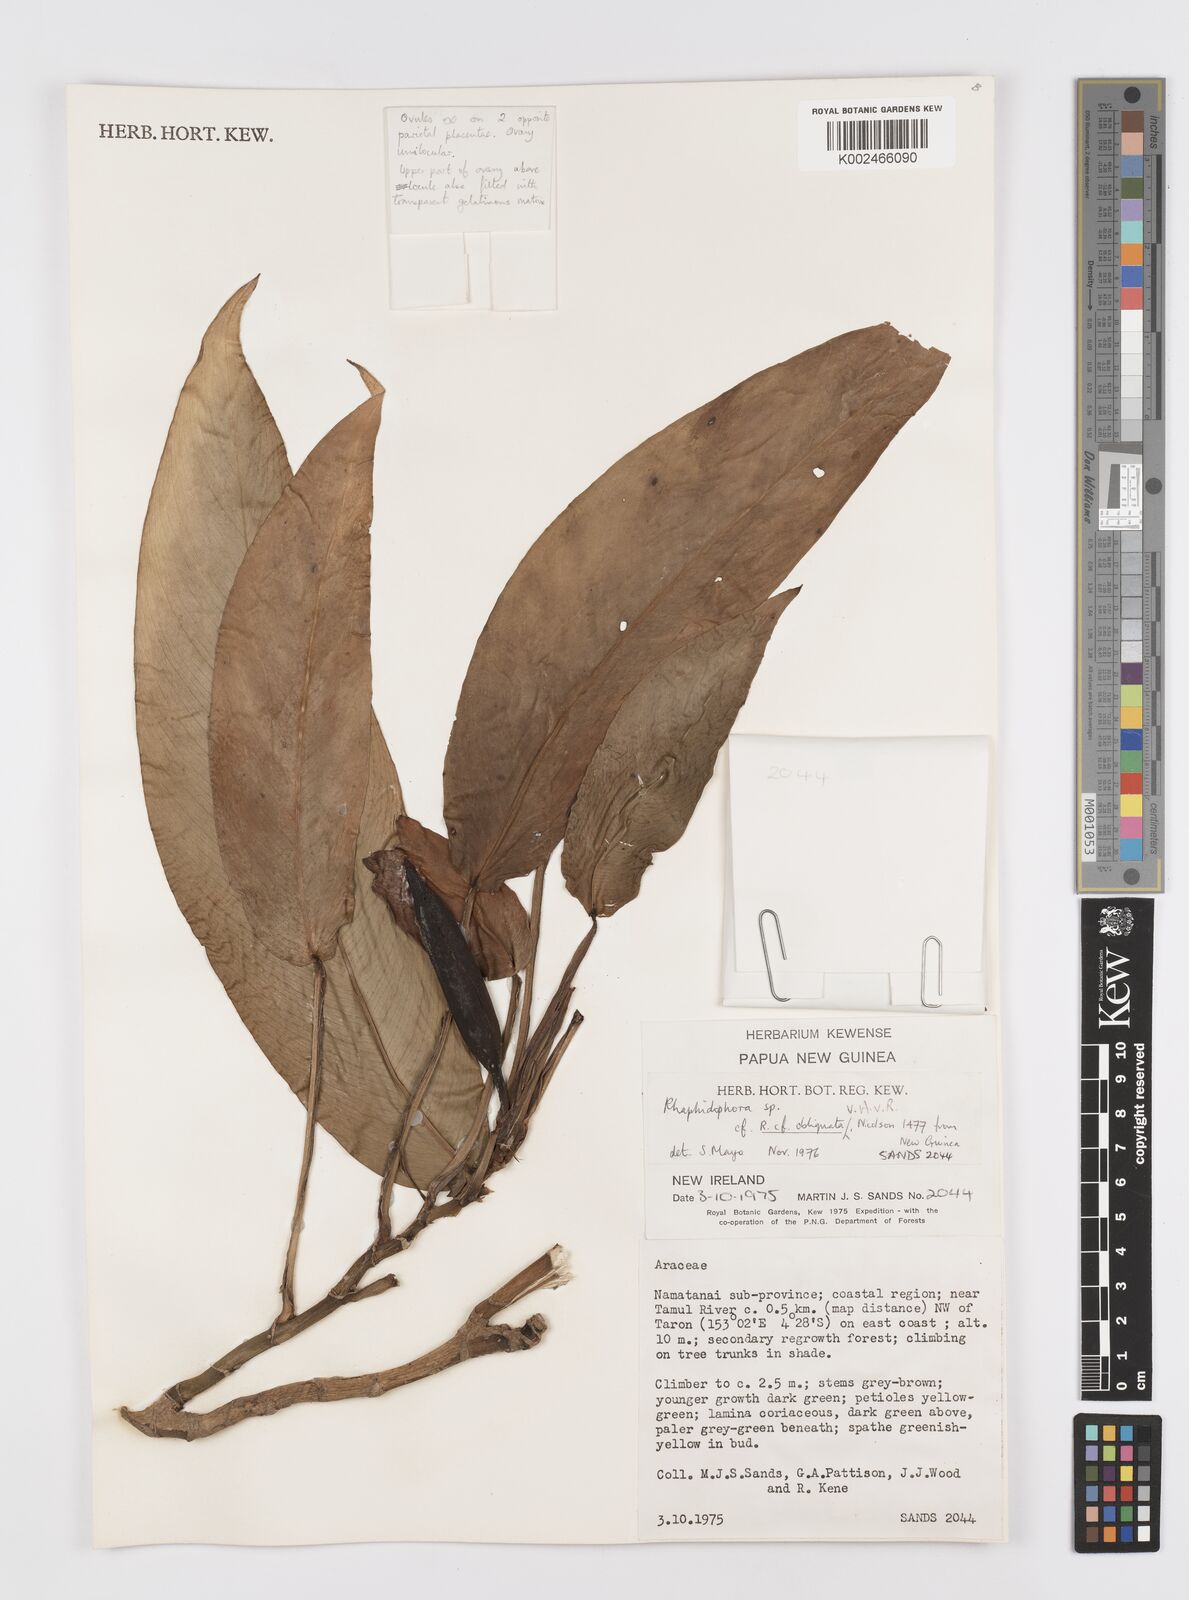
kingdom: Plantae
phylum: Tracheophyta
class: Liliopsida
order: Alismatales
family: Araceae
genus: Rhaphidophora
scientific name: Rhaphidophora schlechteri
